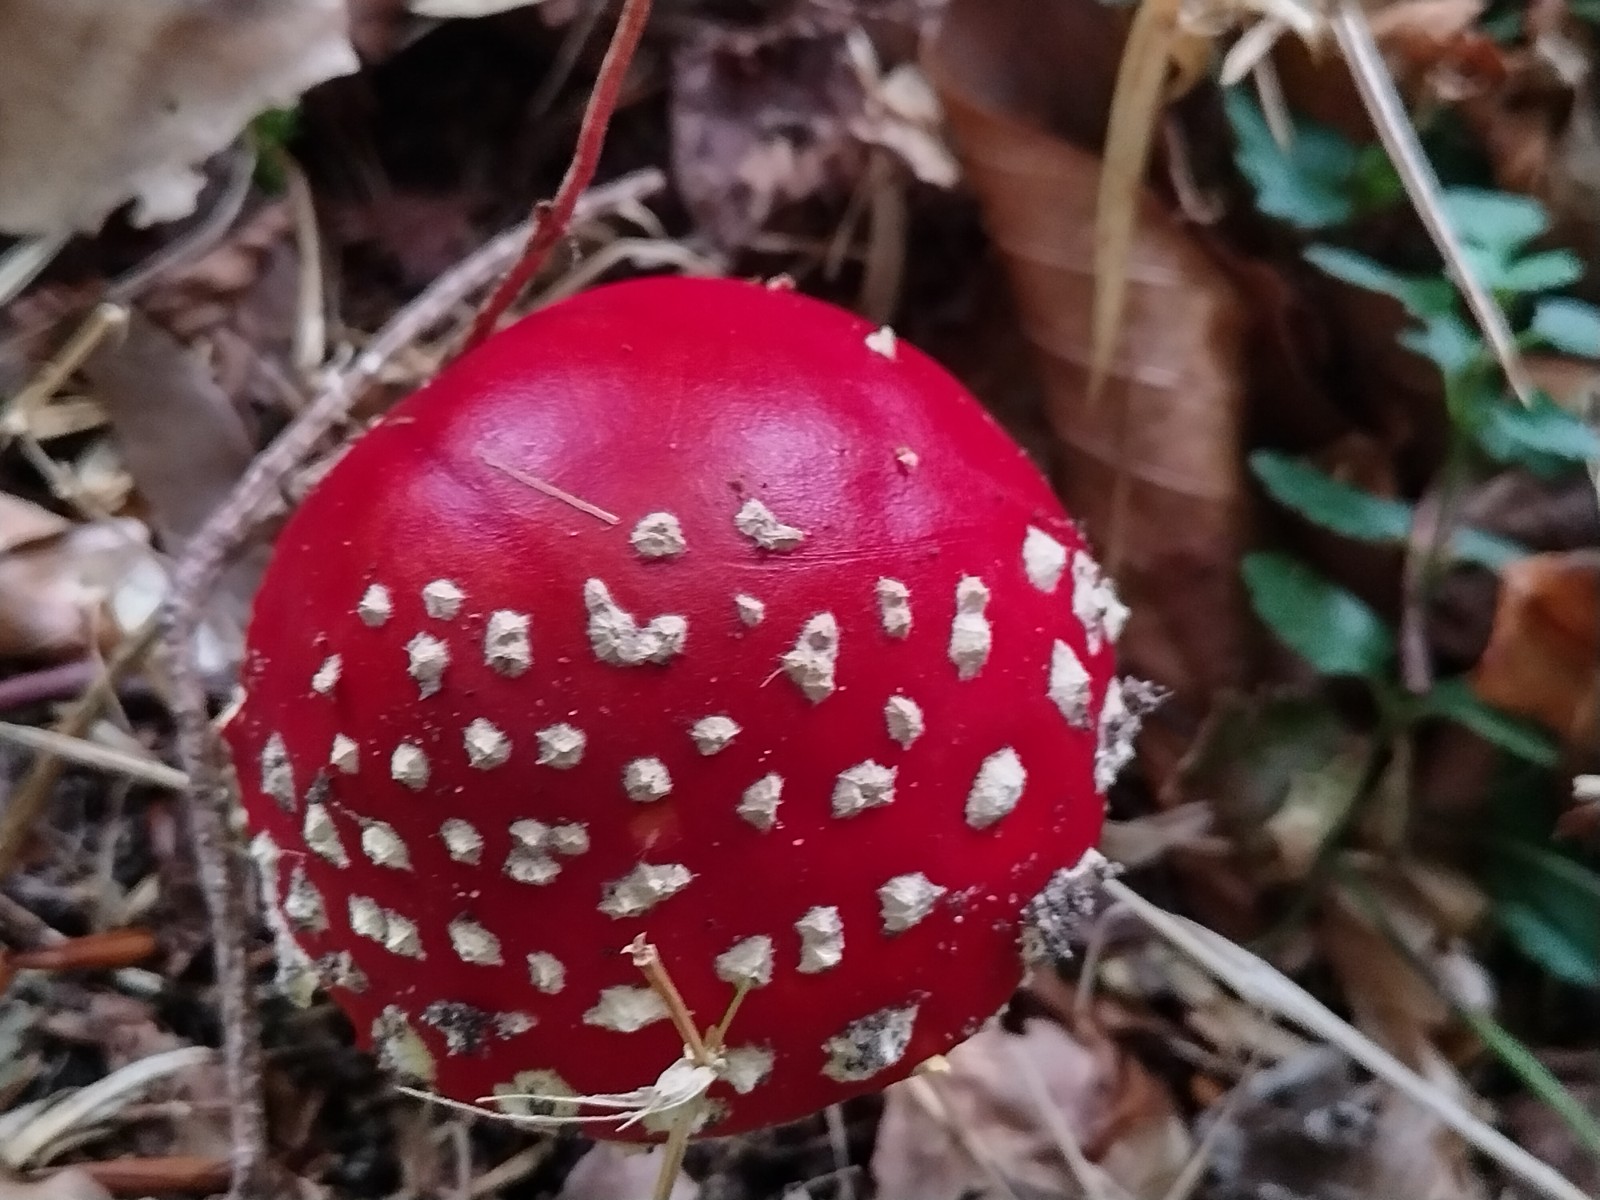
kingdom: Fungi
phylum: Basidiomycota
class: Agaricomycetes
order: Agaricales
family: Amanitaceae
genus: Amanita
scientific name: Amanita muscaria
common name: rød fluesvamp
